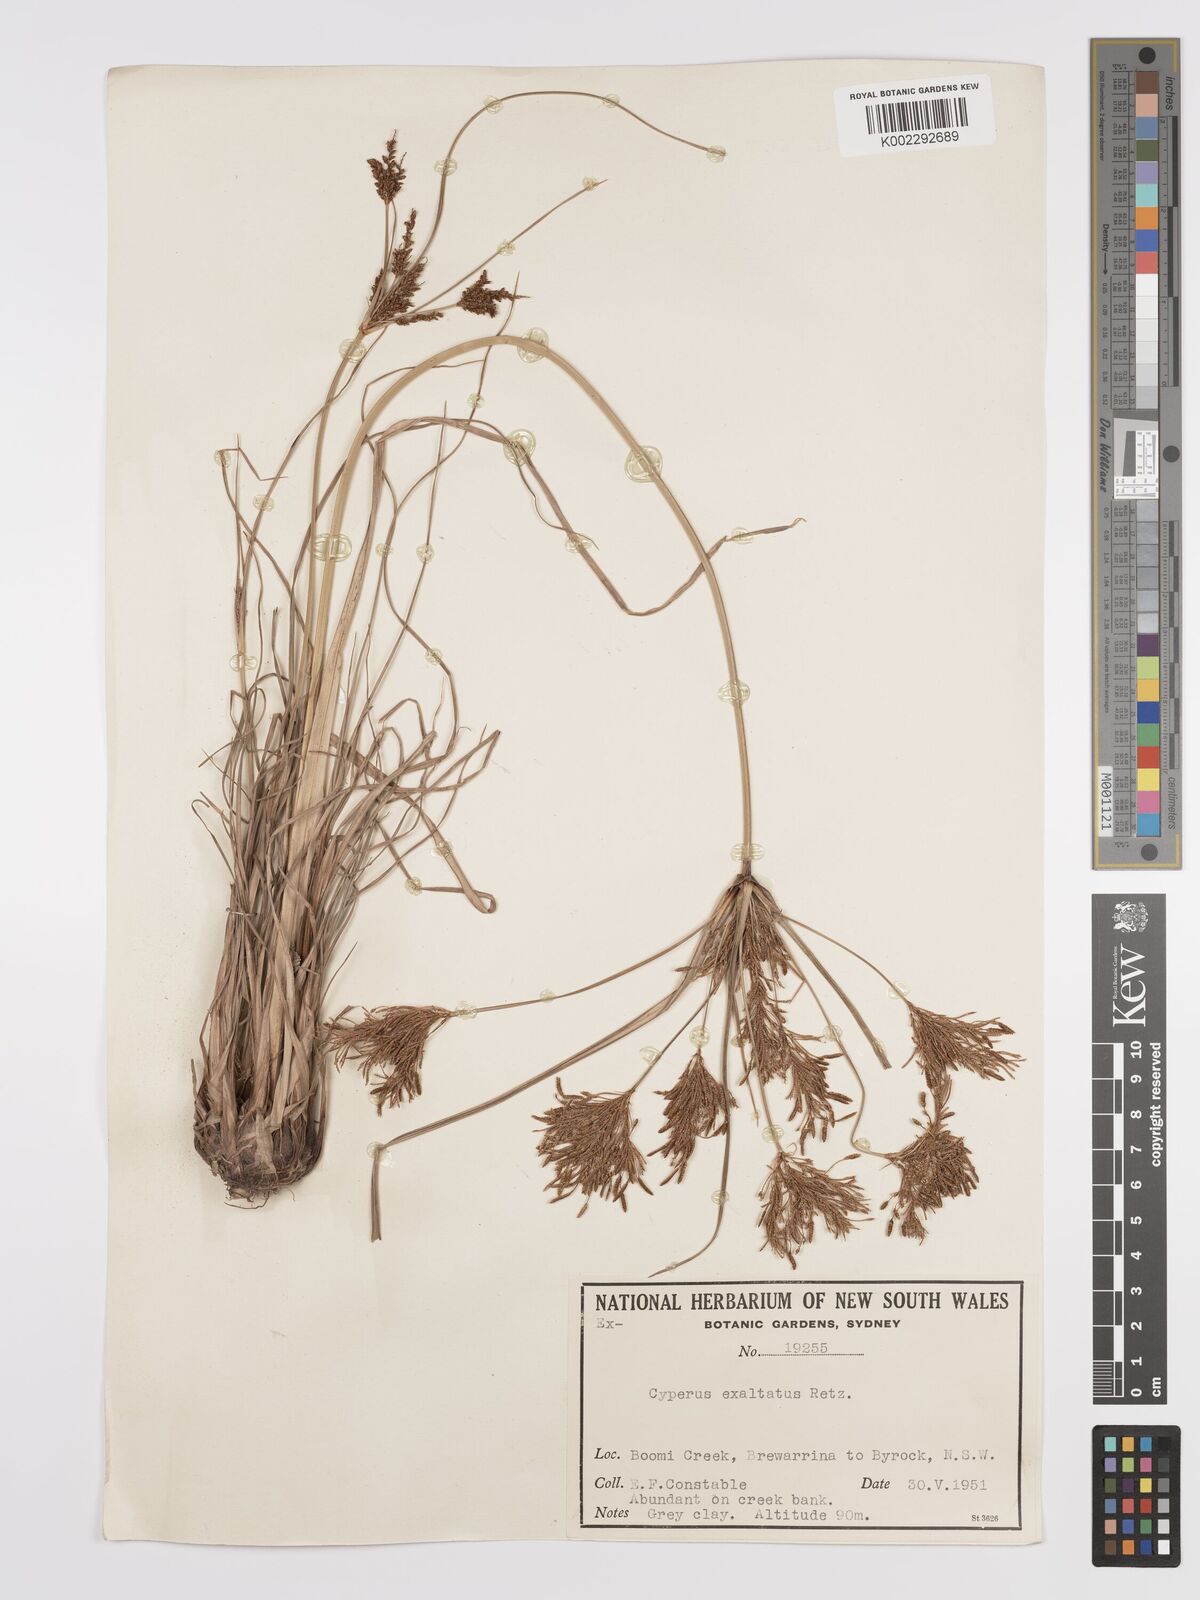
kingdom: Plantae
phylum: Tracheophyta
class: Liliopsida
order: Poales
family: Cyperaceae
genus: Cyperus
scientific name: Cyperus exaltatus
